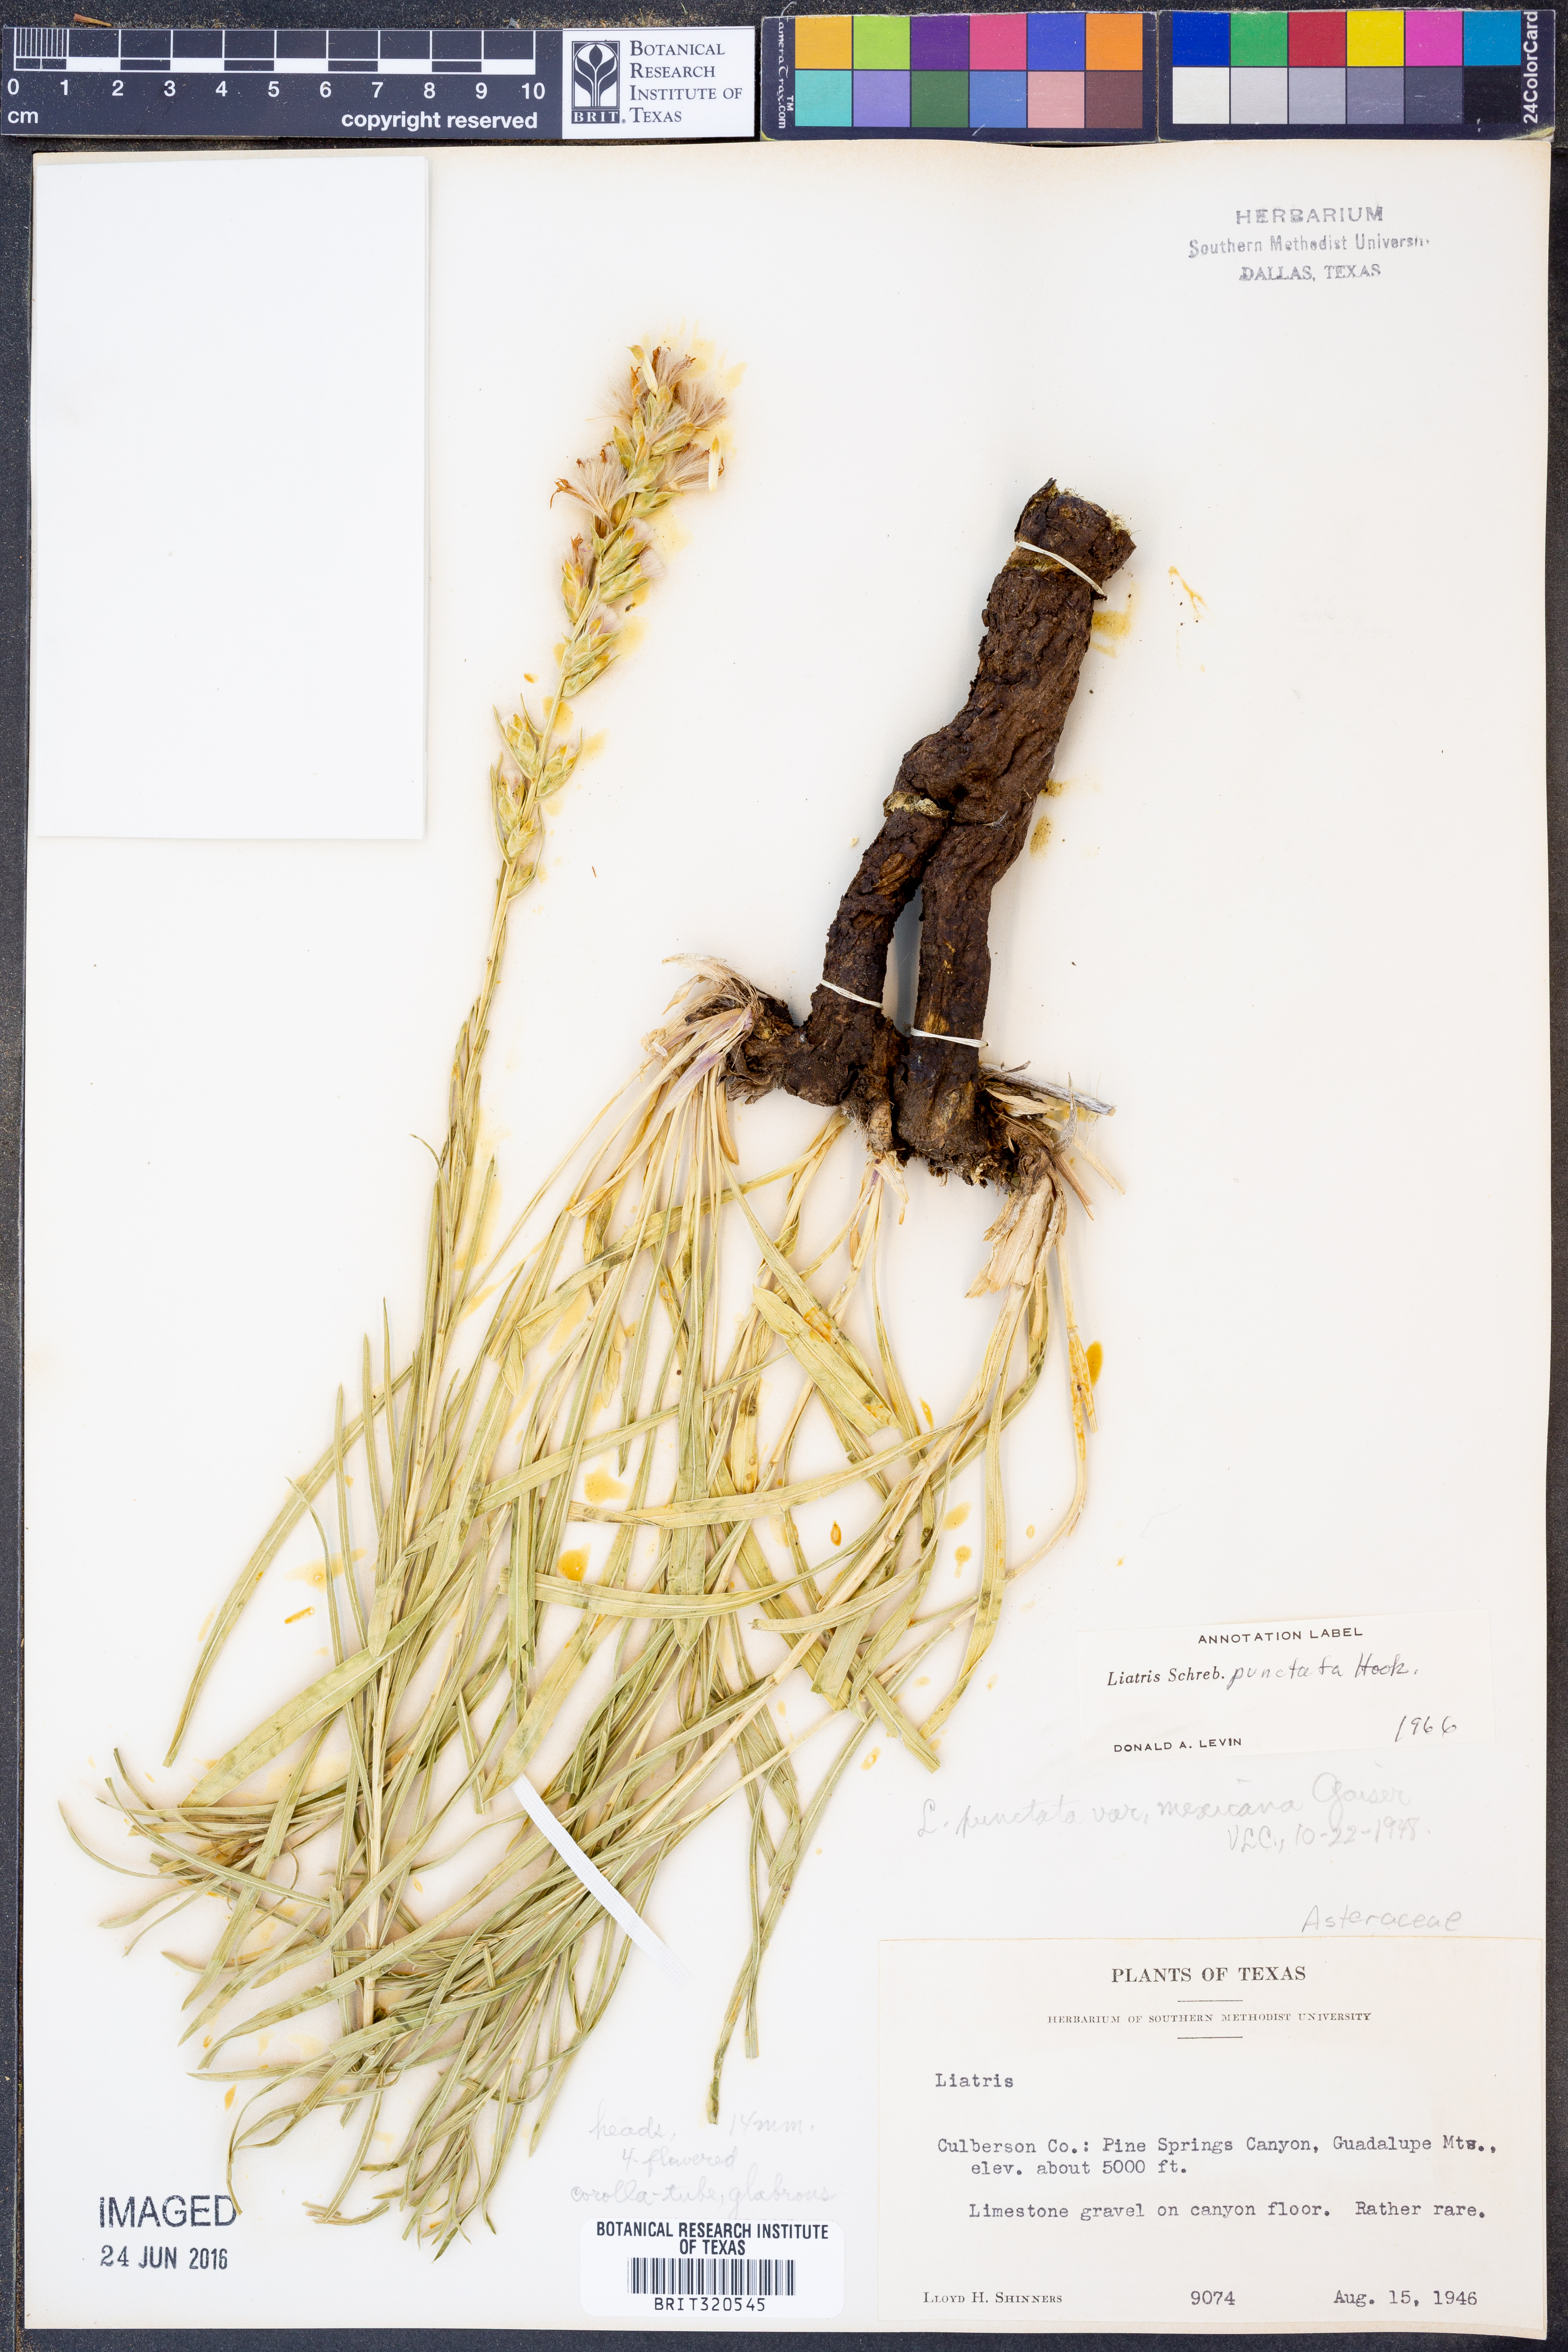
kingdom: Plantae
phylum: Tracheophyta
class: Magnoliopsida
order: Asterales
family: Asteraceae
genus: Liatris
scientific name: Liatris punctata
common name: Dotted gayfeather
